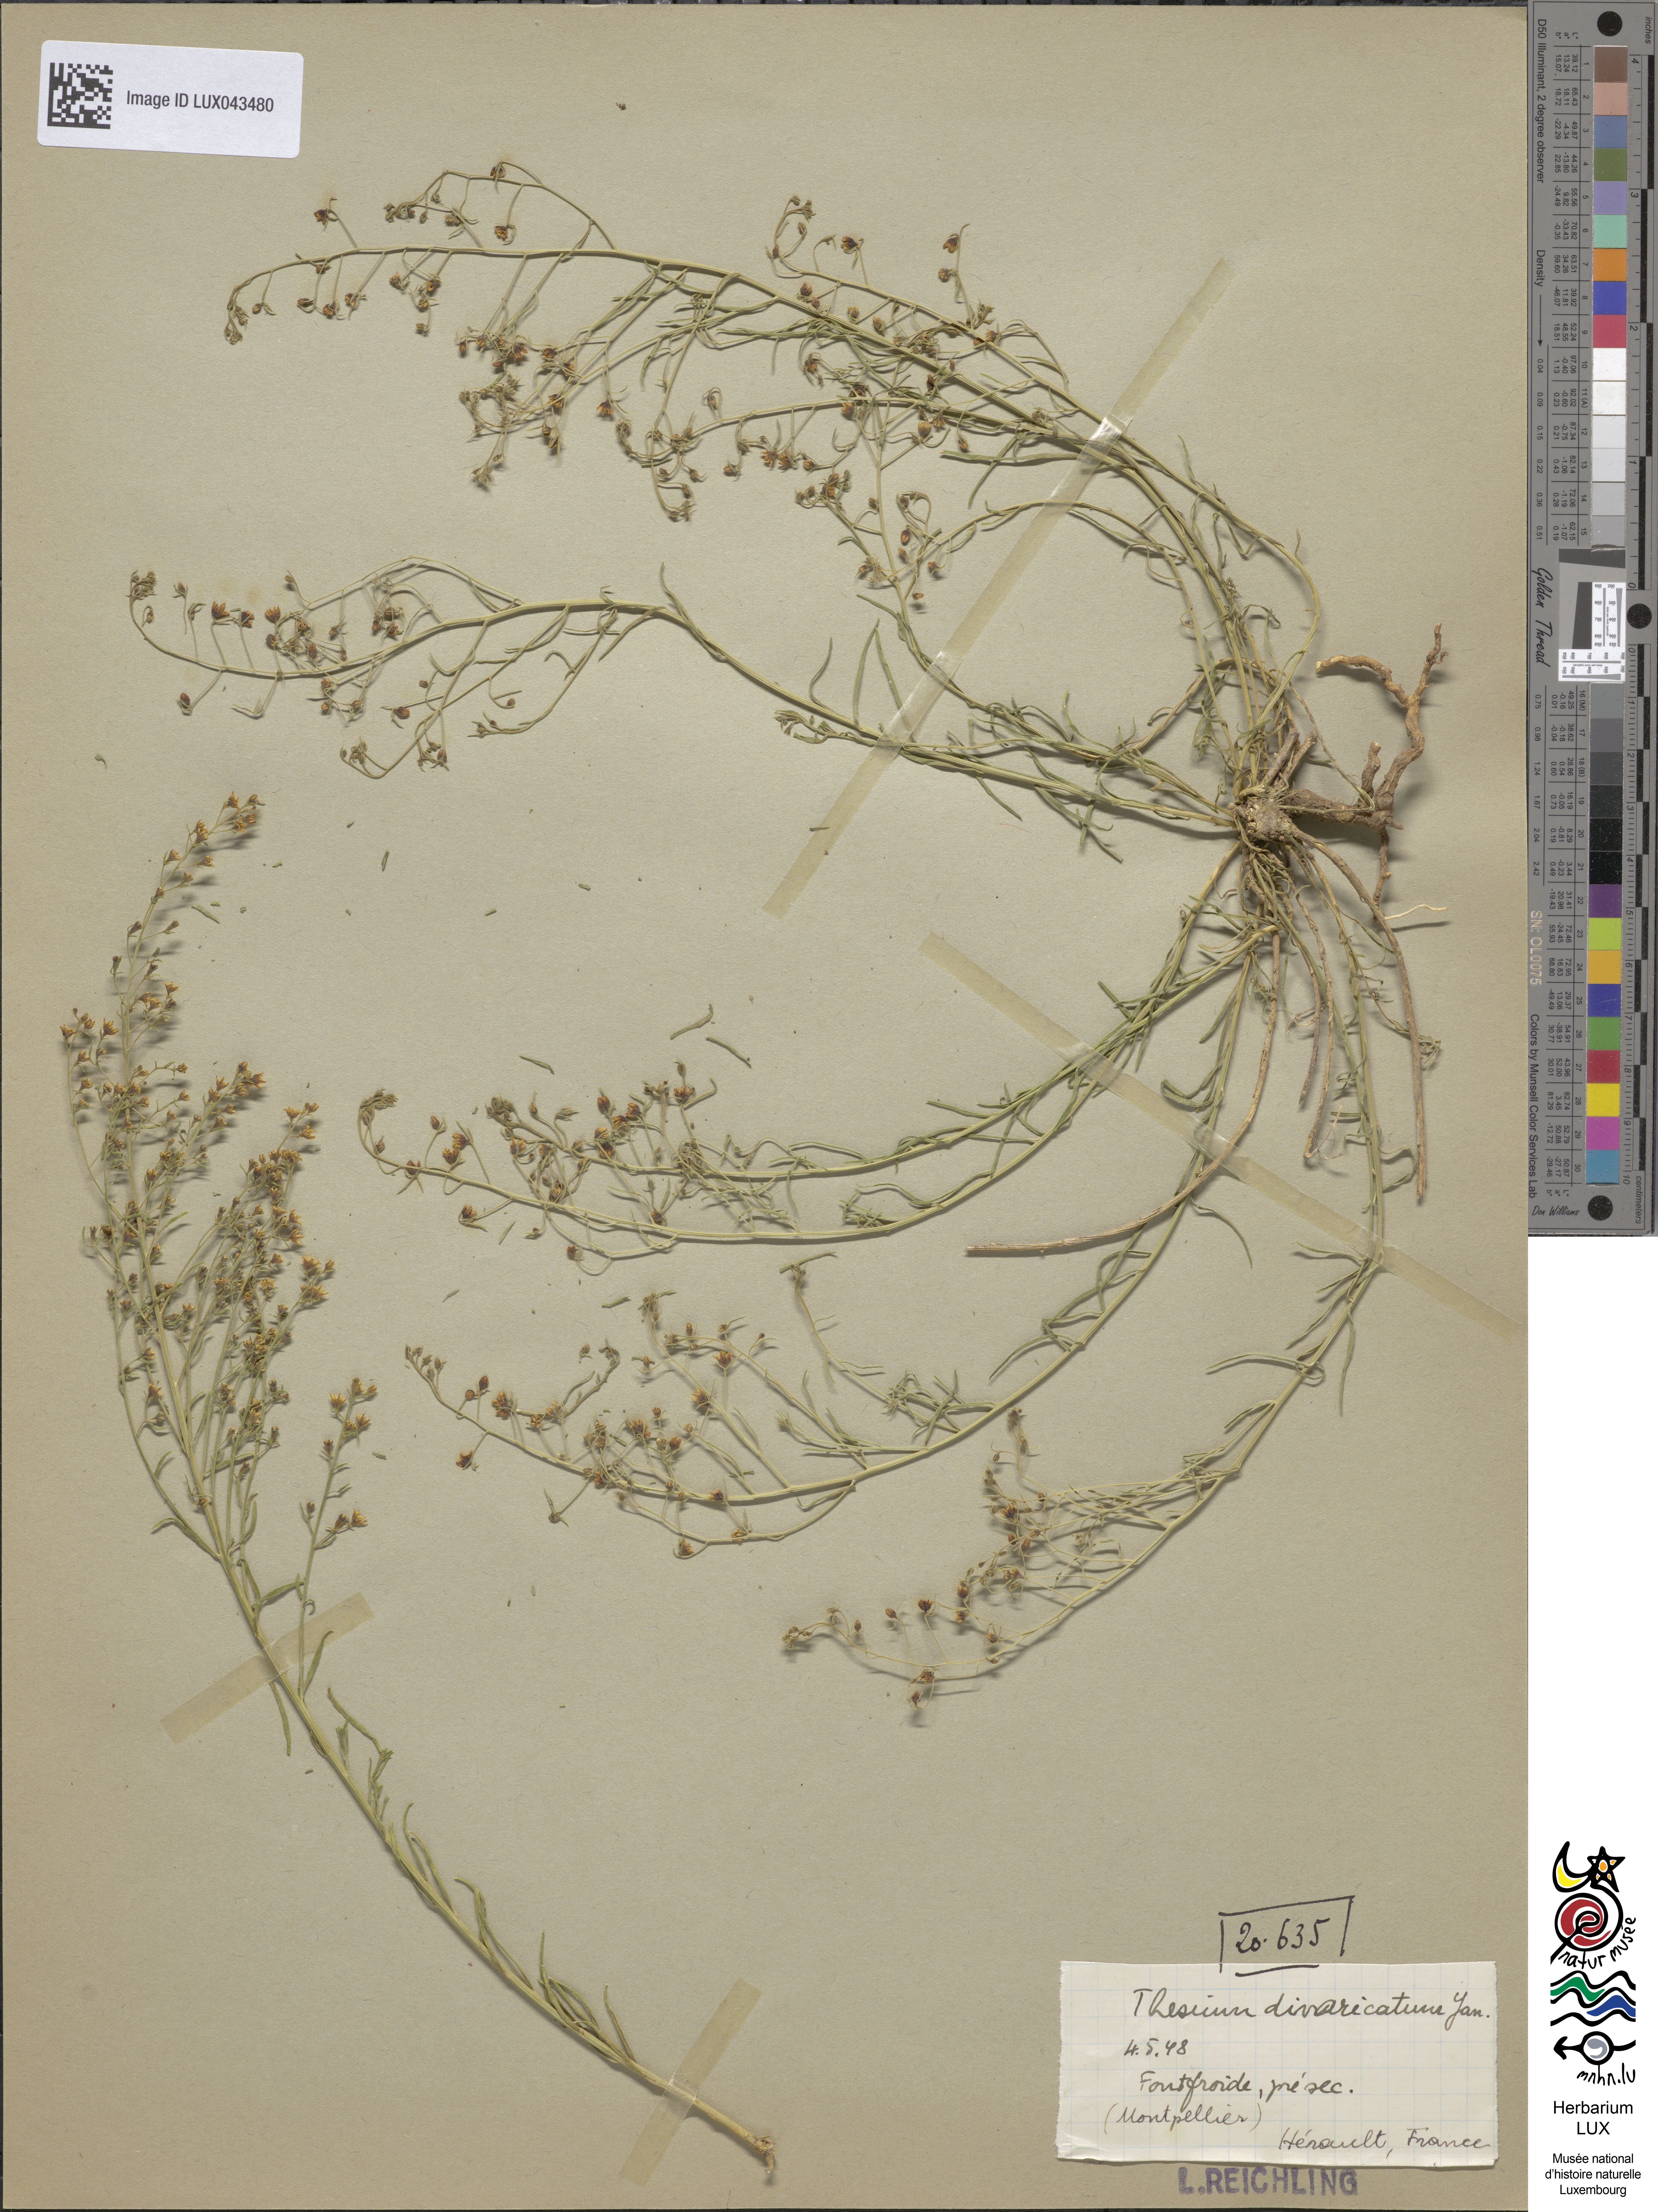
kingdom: Plantae
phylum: Tracheophyta
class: Magnoliopsida
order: Santalales
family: Thesiaceae
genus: Thesium
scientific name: Thesium divaricatum
